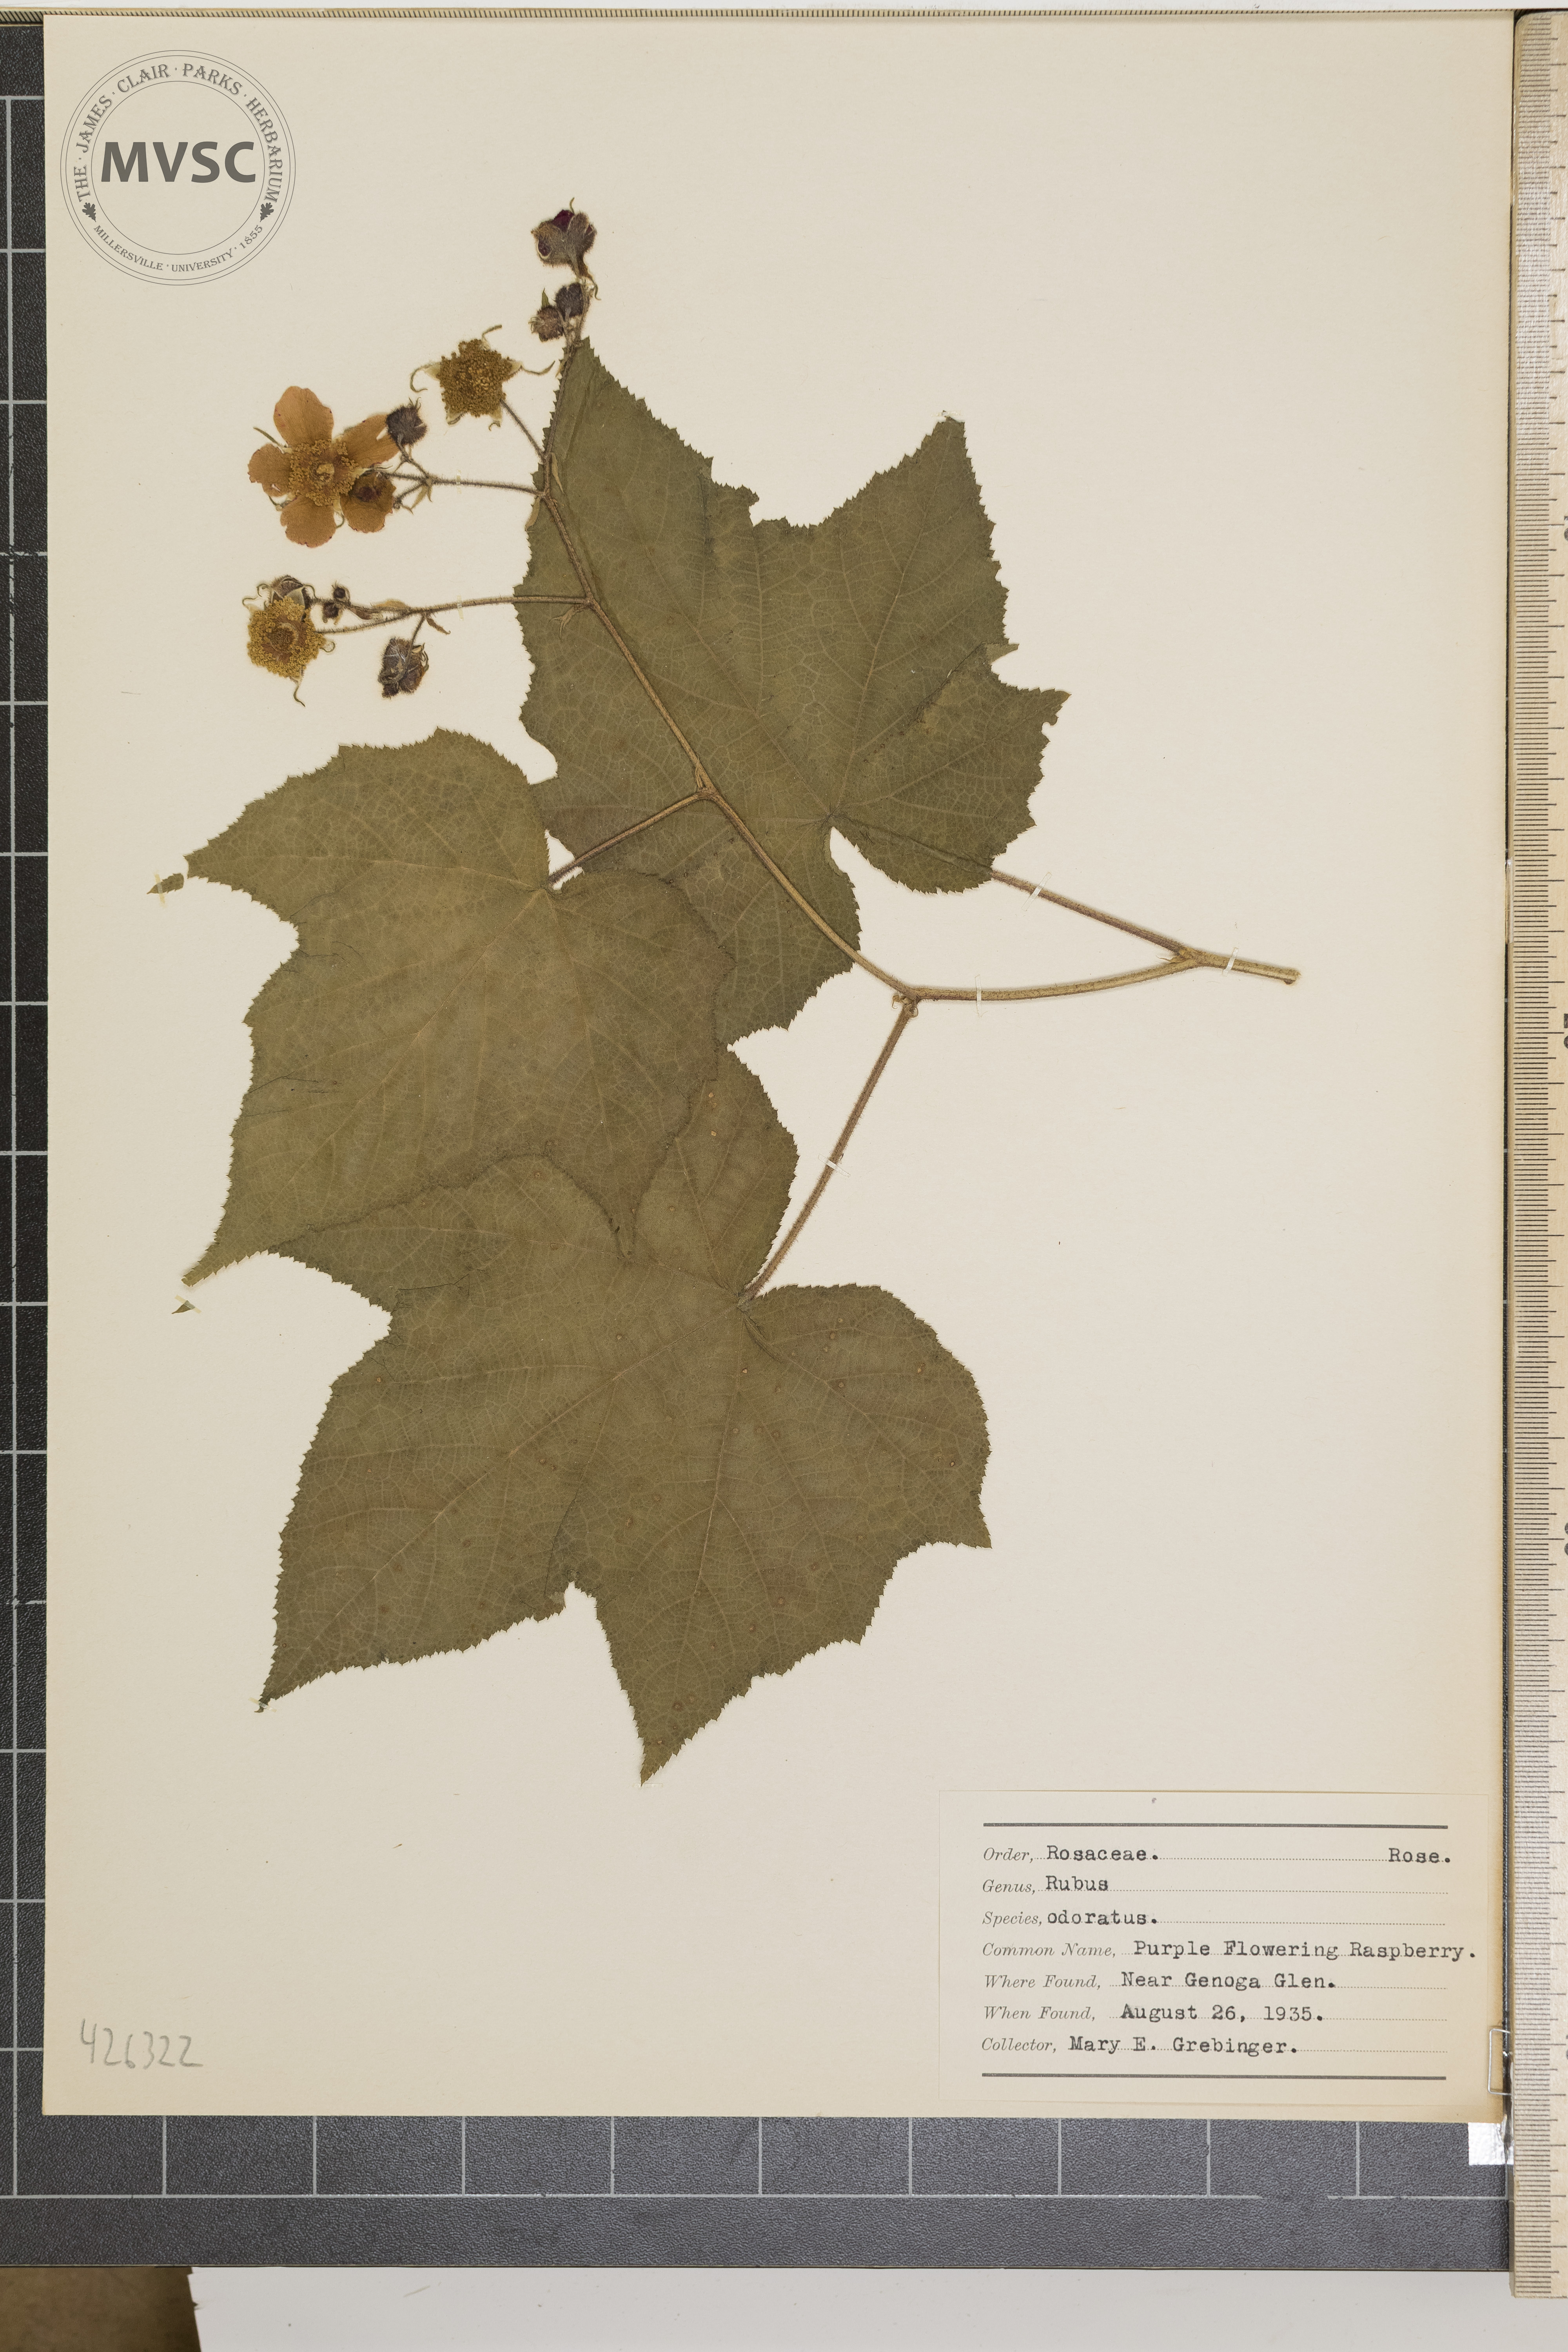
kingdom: Plantae
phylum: Tracheophyta
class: Magnoliopsida
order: Rosales
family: Rosaceae
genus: Rubus
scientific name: Rubus odoratus
